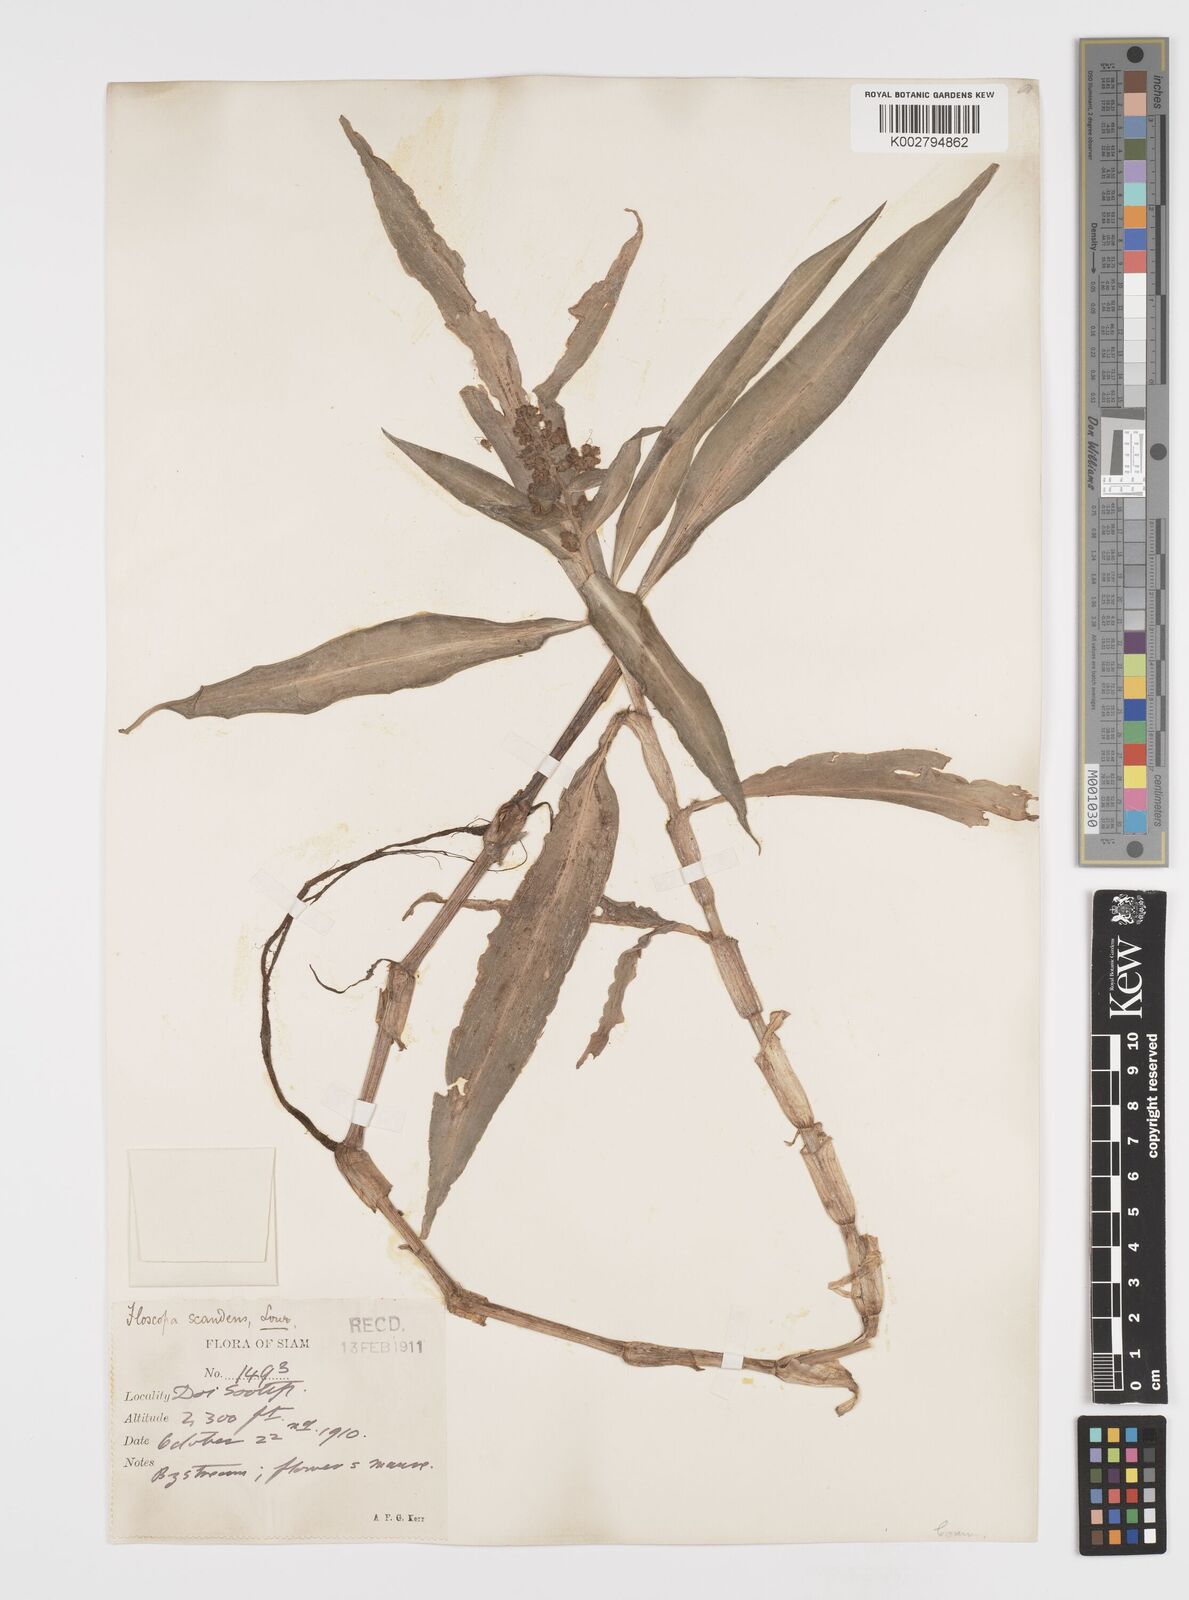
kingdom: Plantae
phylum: Tracheophyta
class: Liliopsida
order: Commelinales
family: Commelinaceae
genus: Floscopa
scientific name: Floscopa
